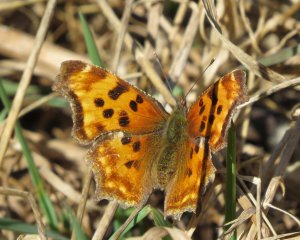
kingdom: Animalia
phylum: Arthropoda
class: Insecta
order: Lepidoptera
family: Nymphalidae
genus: Polygonia
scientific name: Polygonia faunus
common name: Green Comma
